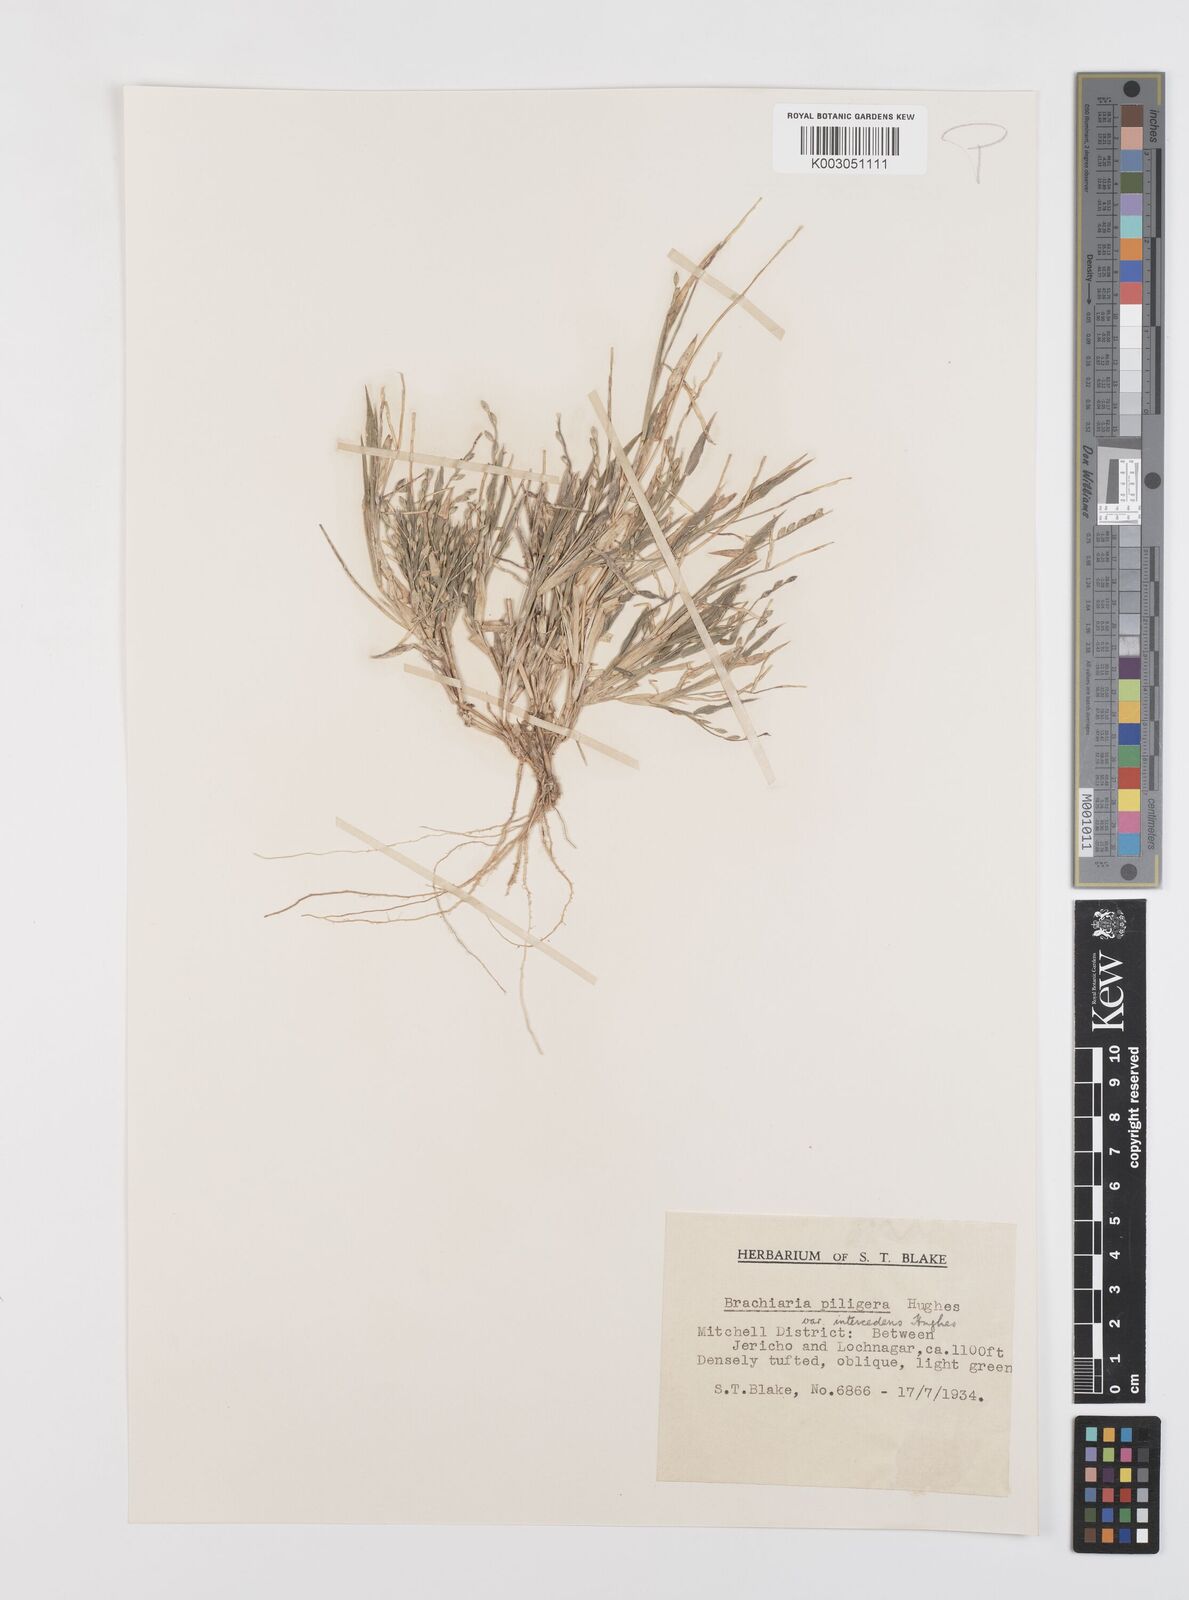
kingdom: Plantae
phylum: Tracheophyta
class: Liliopsida
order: Poales
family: Poaceae
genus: Urochloa
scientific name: Urochloa piligera
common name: Wattle signalgrass
